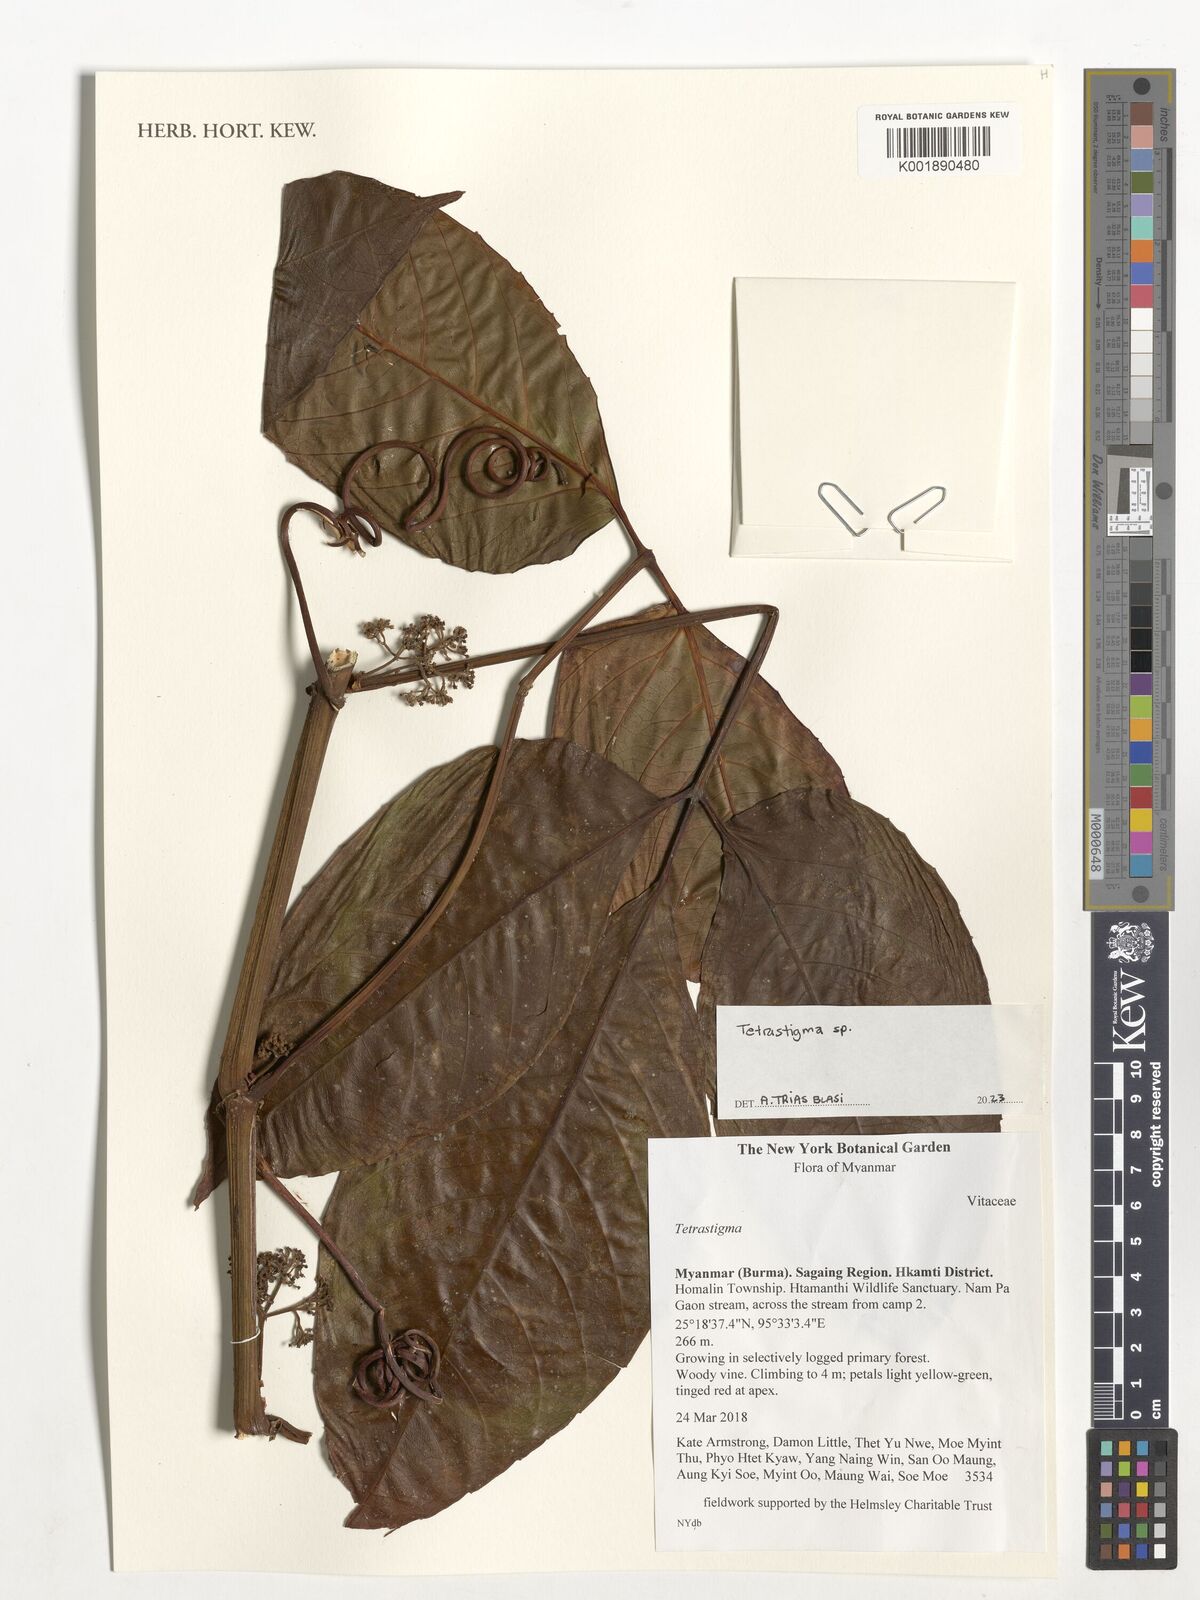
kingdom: Plantae
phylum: Tracheophyta
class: Magnoliopsida
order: Vitales
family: Vitaceae
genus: Tetrastigma
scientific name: Tetrastigma
